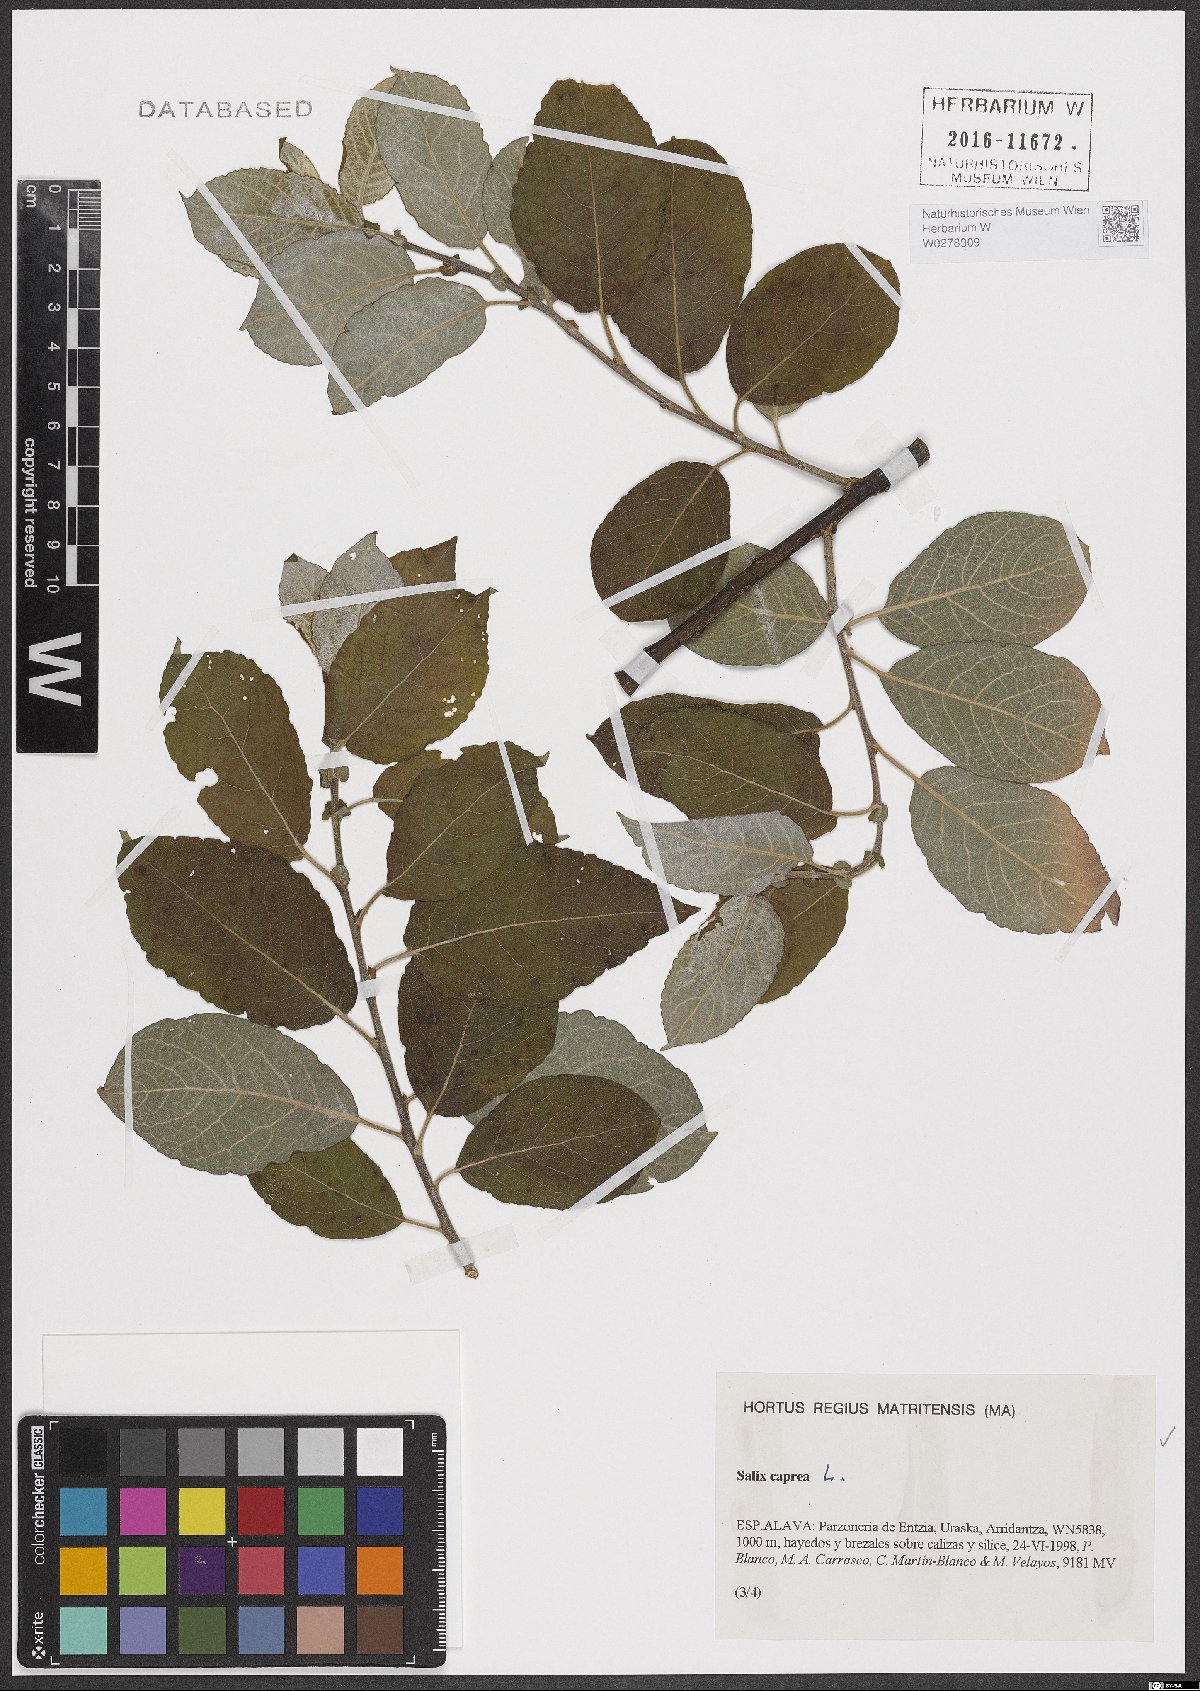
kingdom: Plantae
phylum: Tracheophyta
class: Magnoliopsida
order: Malpighiales
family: Salicaceae
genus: Salix
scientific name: Salix caprea
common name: Goat willow
